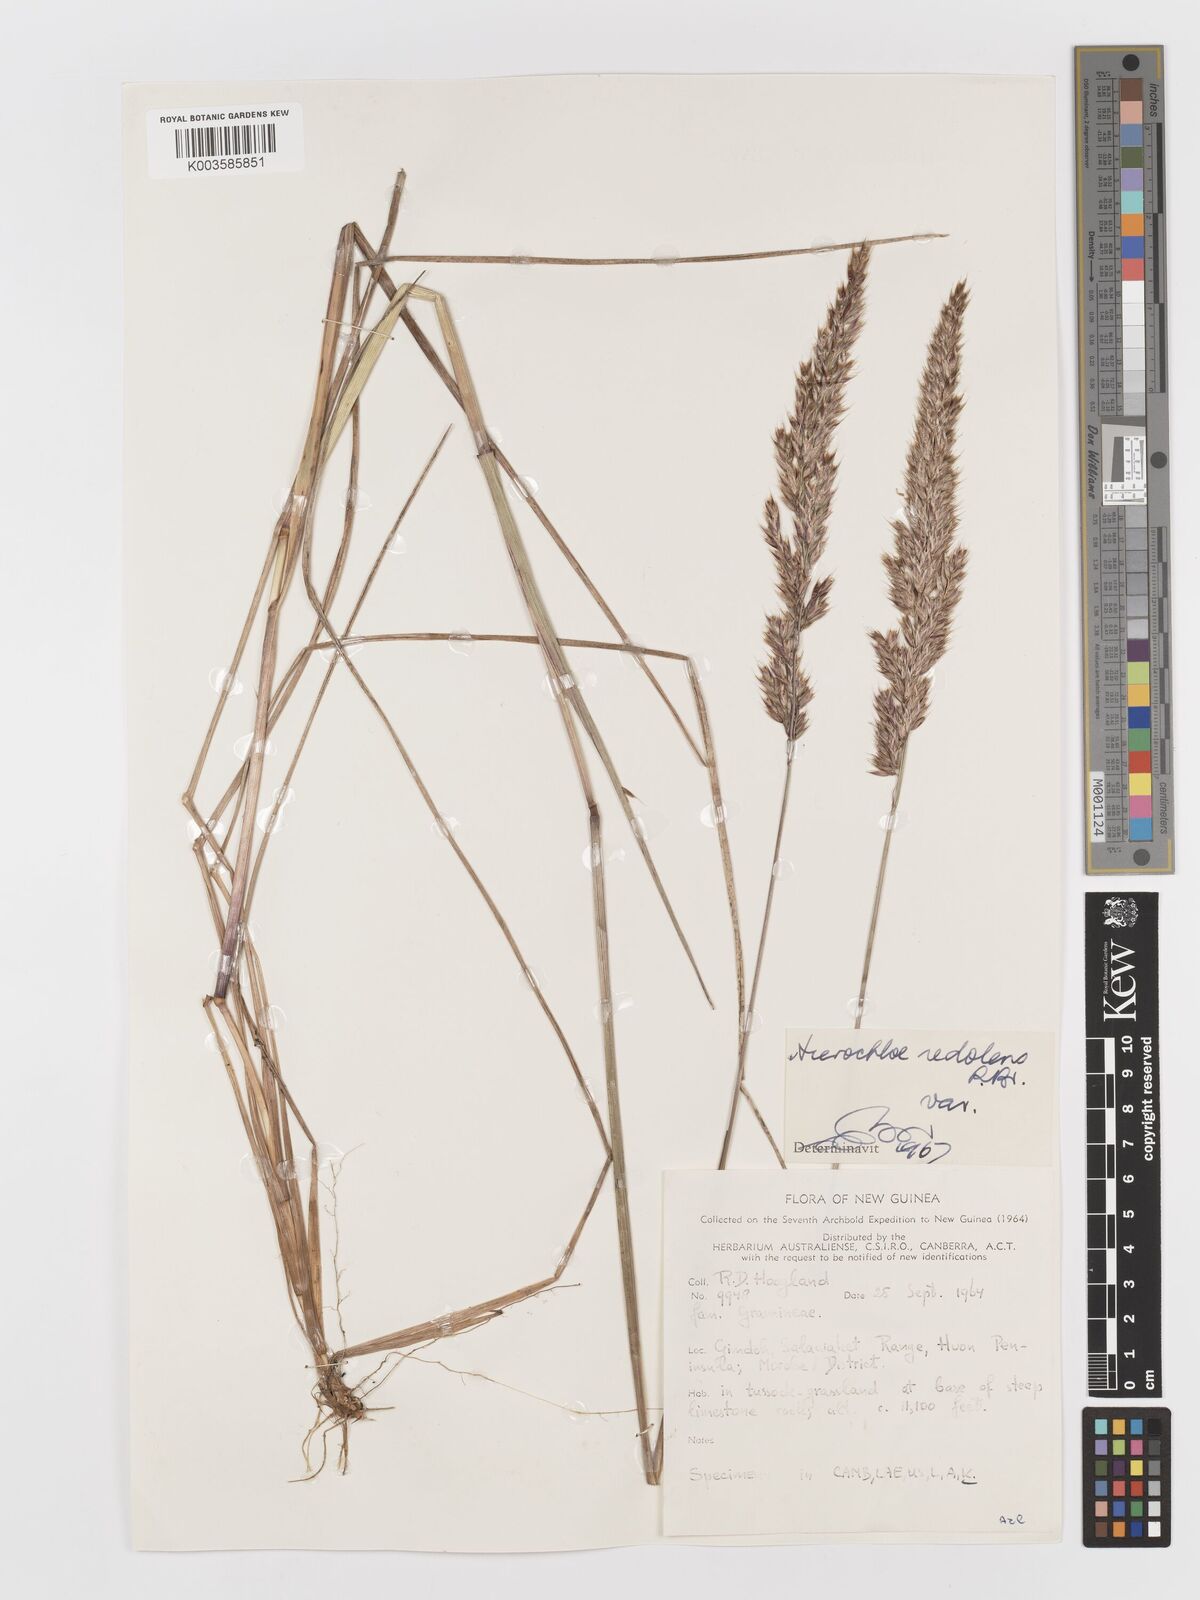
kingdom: Plantae
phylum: Tracheophyta
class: Liliopsida
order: Poales
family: Poaceae
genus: Anthoxanthum
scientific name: Anthoxanthum redolens
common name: Sweet holy grass
